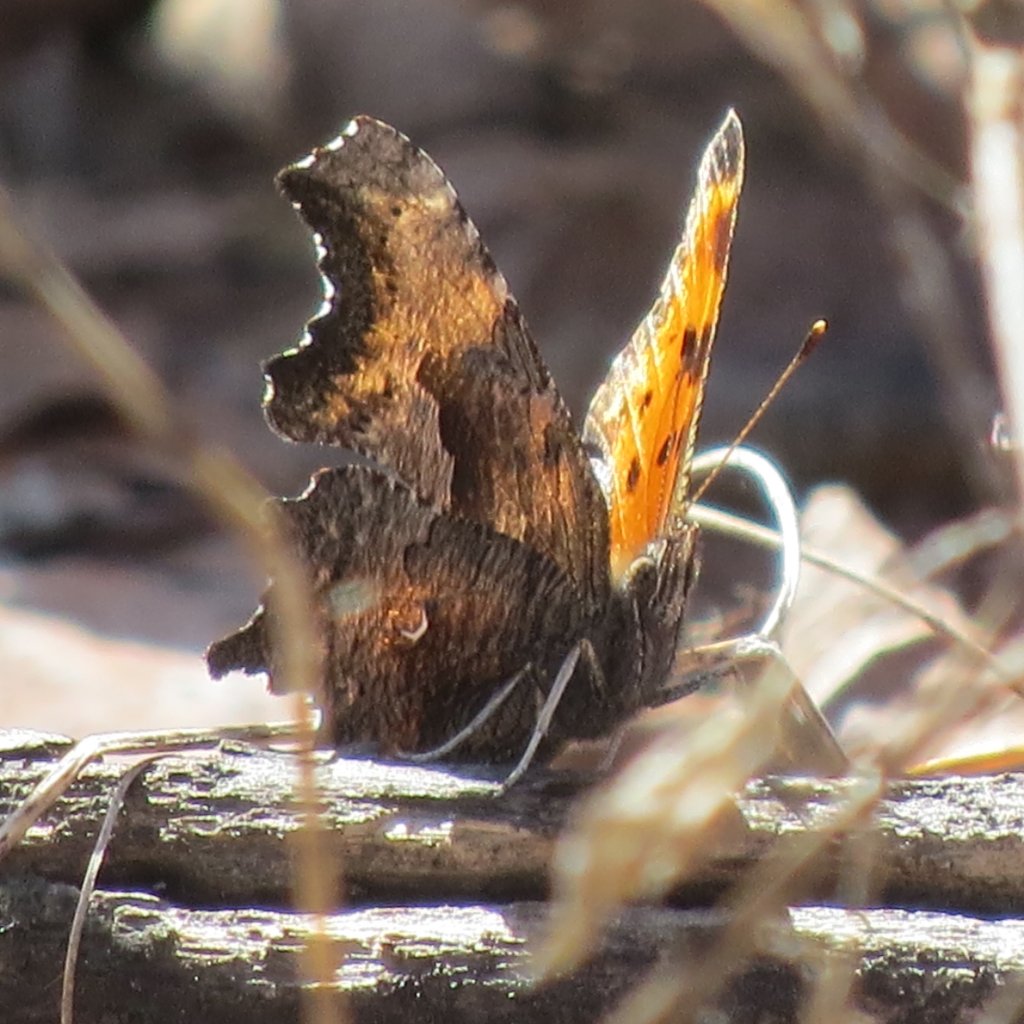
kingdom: Animalia
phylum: Arthropoda
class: Insecta
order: Lepidoptera
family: Nymphalidae
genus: Polygonia
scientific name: Polygonia comma
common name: Eastern Comma
